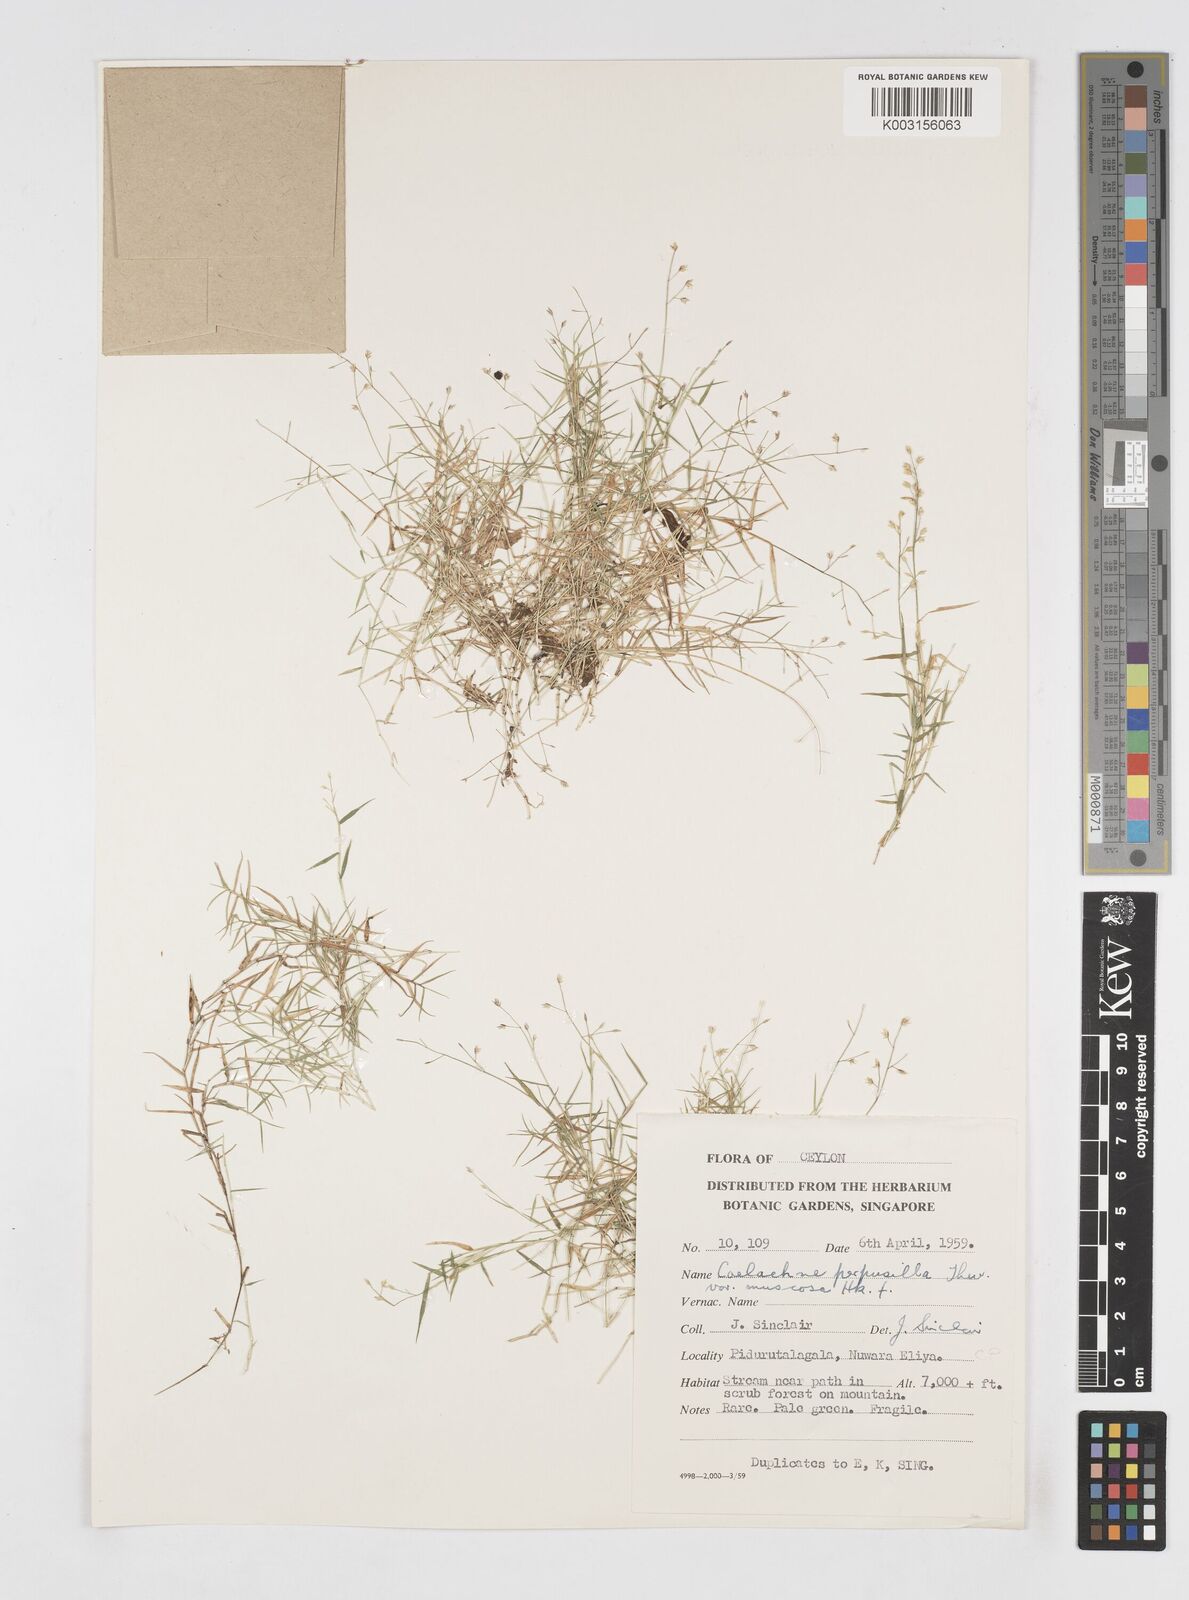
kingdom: Plantae
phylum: Tracheophyta
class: Liliopsida
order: Poales
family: Poaceae
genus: Coelachne
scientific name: Coelachne perpusilla
